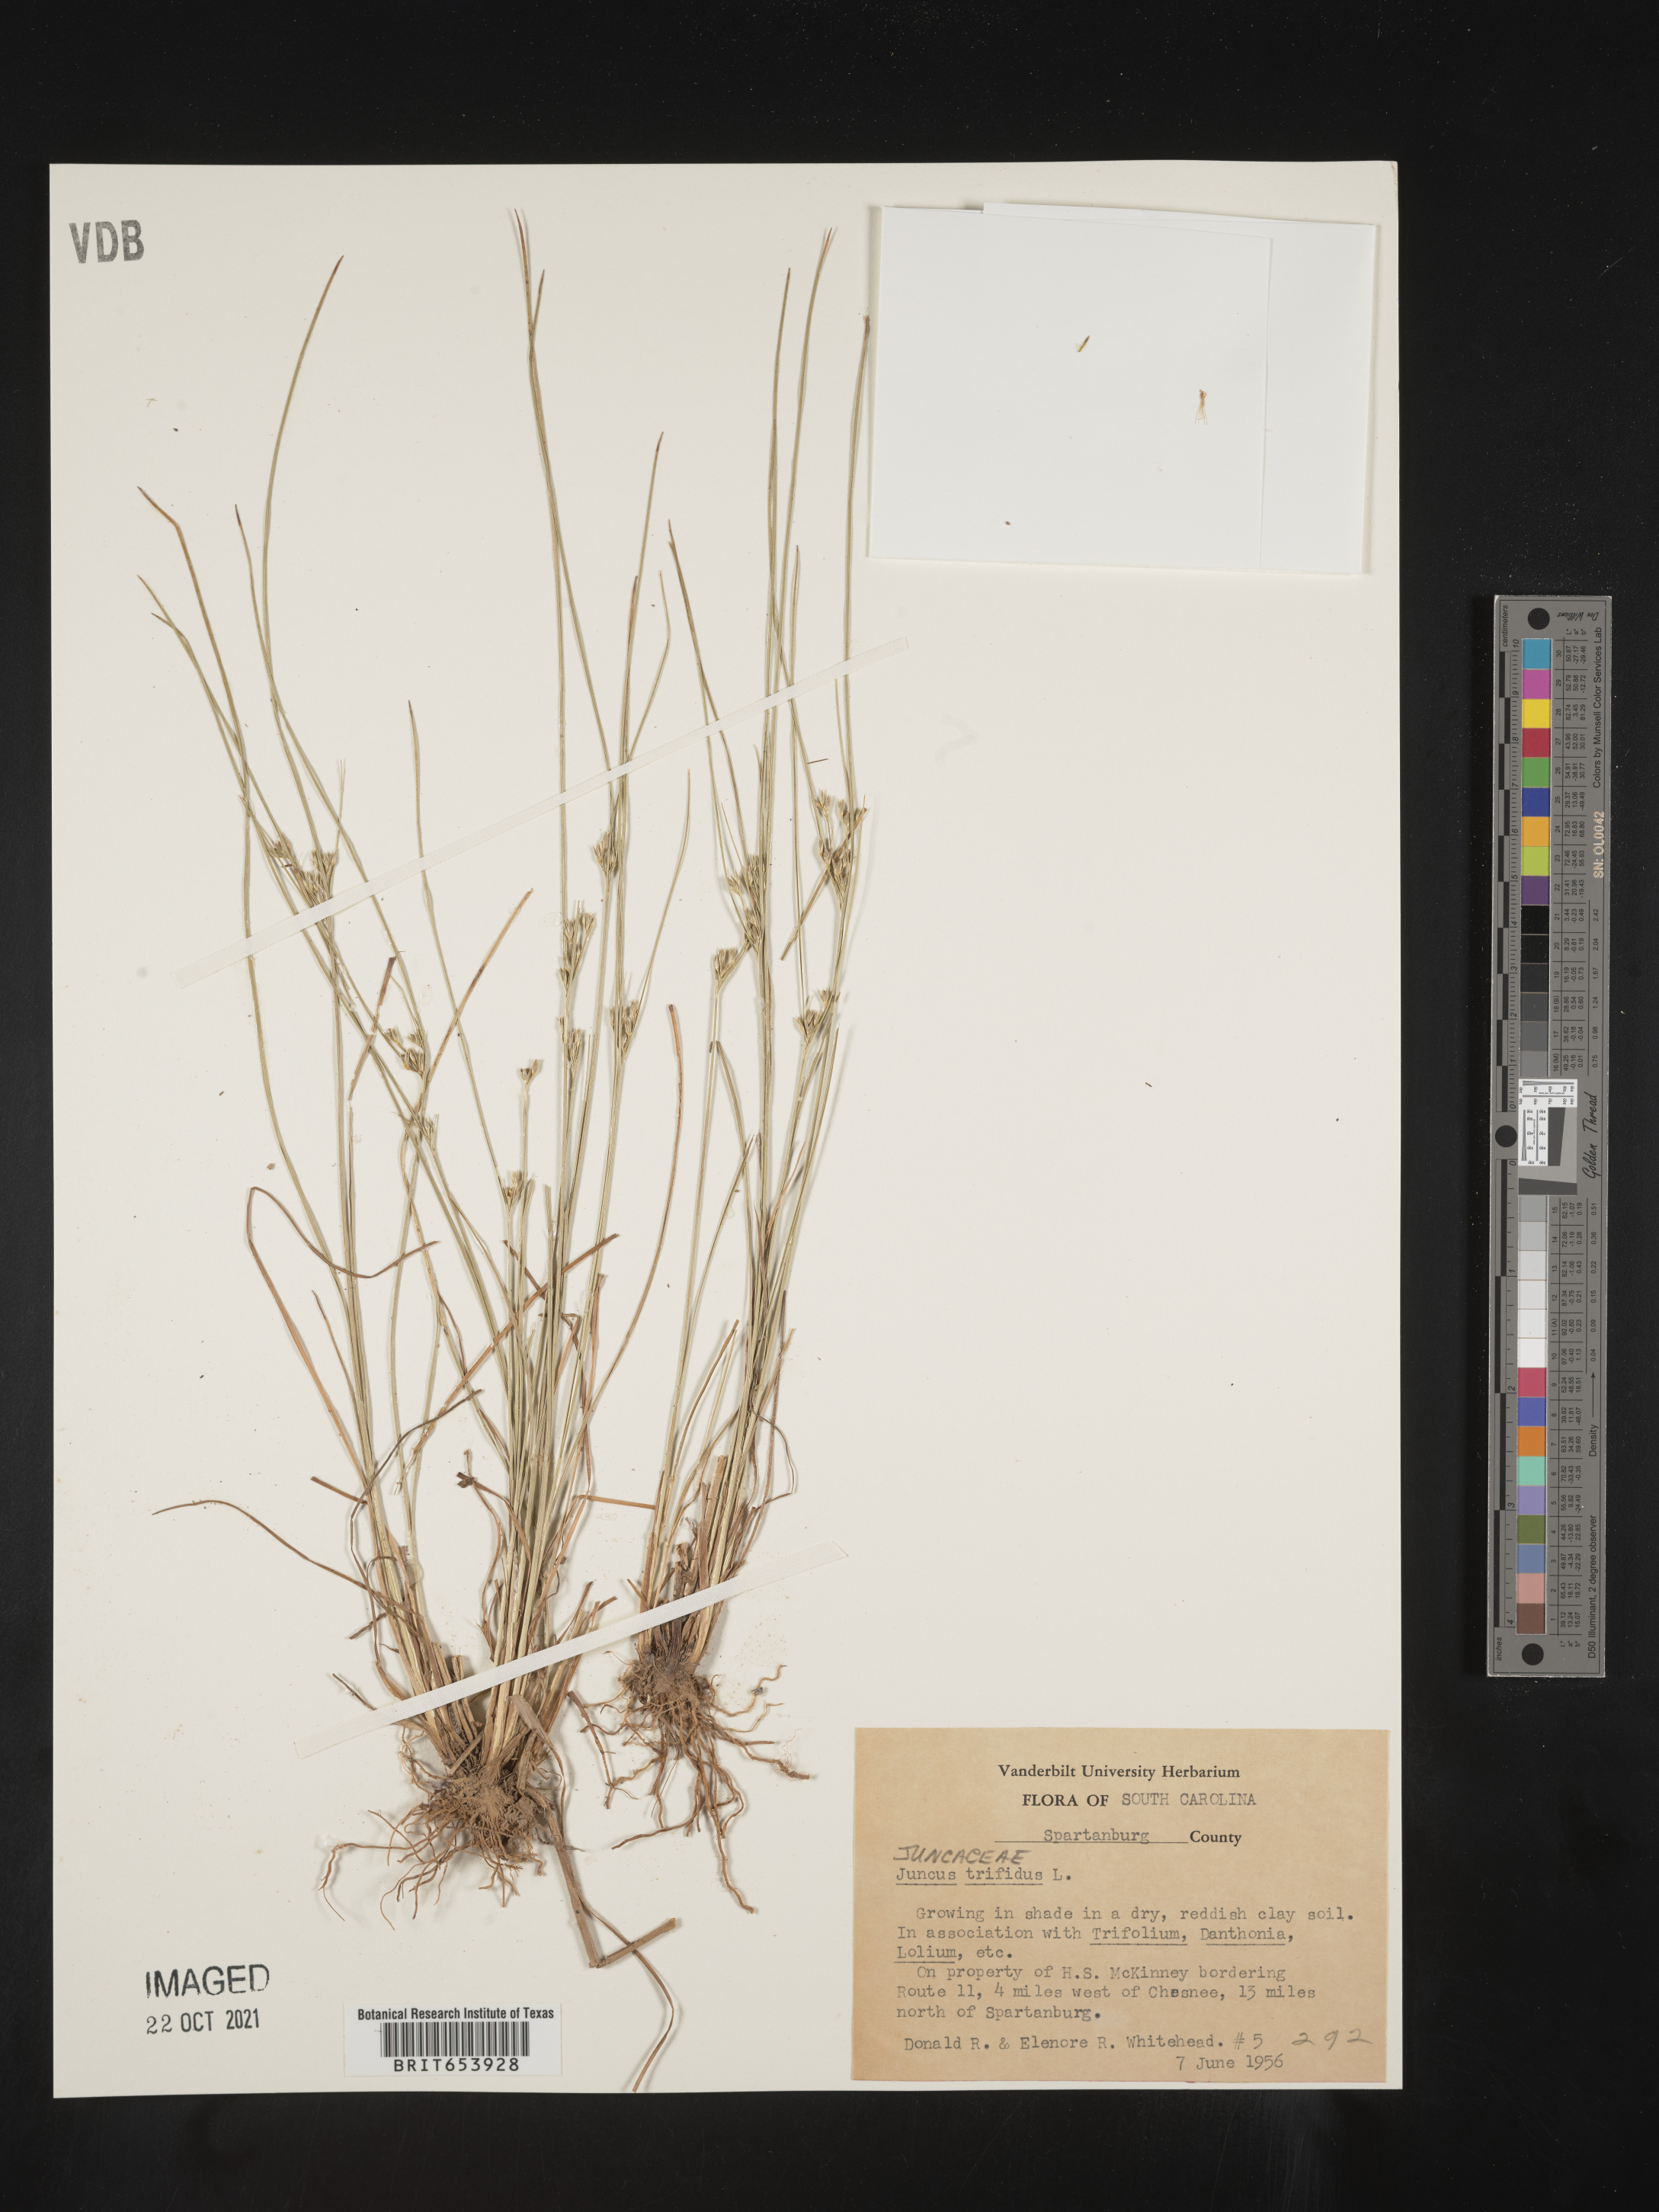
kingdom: Plantae
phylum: Tracheophyta
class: Liliopsida
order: Poales
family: Juncaceae
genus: Oreojuncus
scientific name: Oreojuncus trifidus
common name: Highland rush
